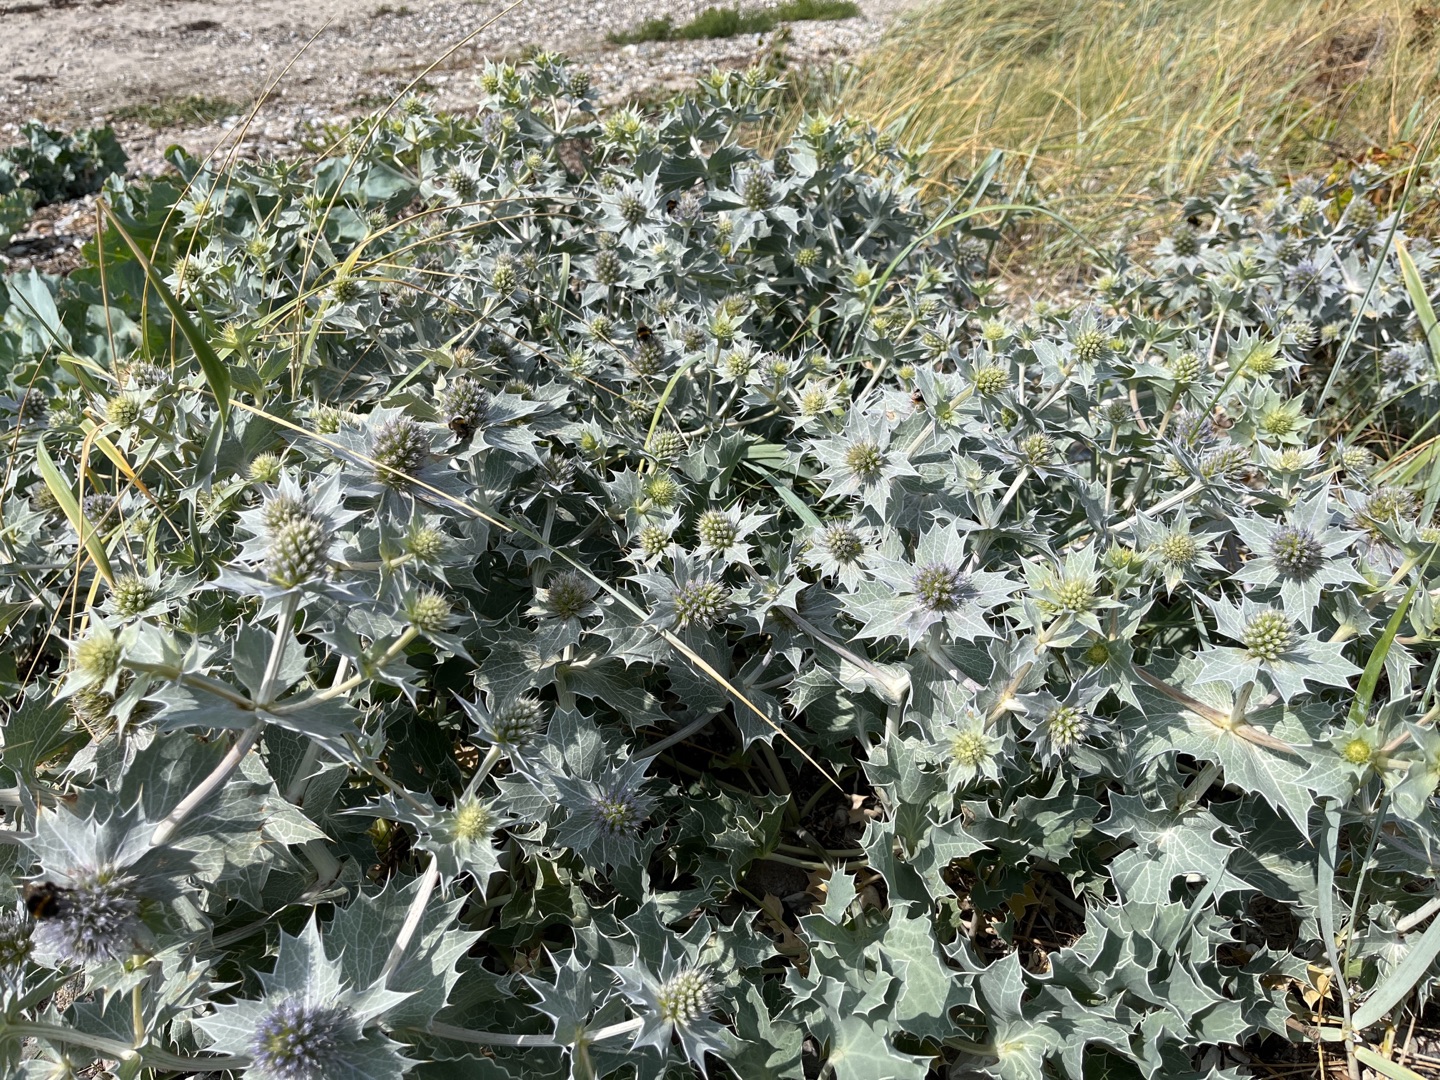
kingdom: Plantae
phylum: Tracheophyta
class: Magnoliopsida
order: Apiales
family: Apiaceae
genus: Eryngium
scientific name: Eryngium maritimum
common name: Strand-mandstro
